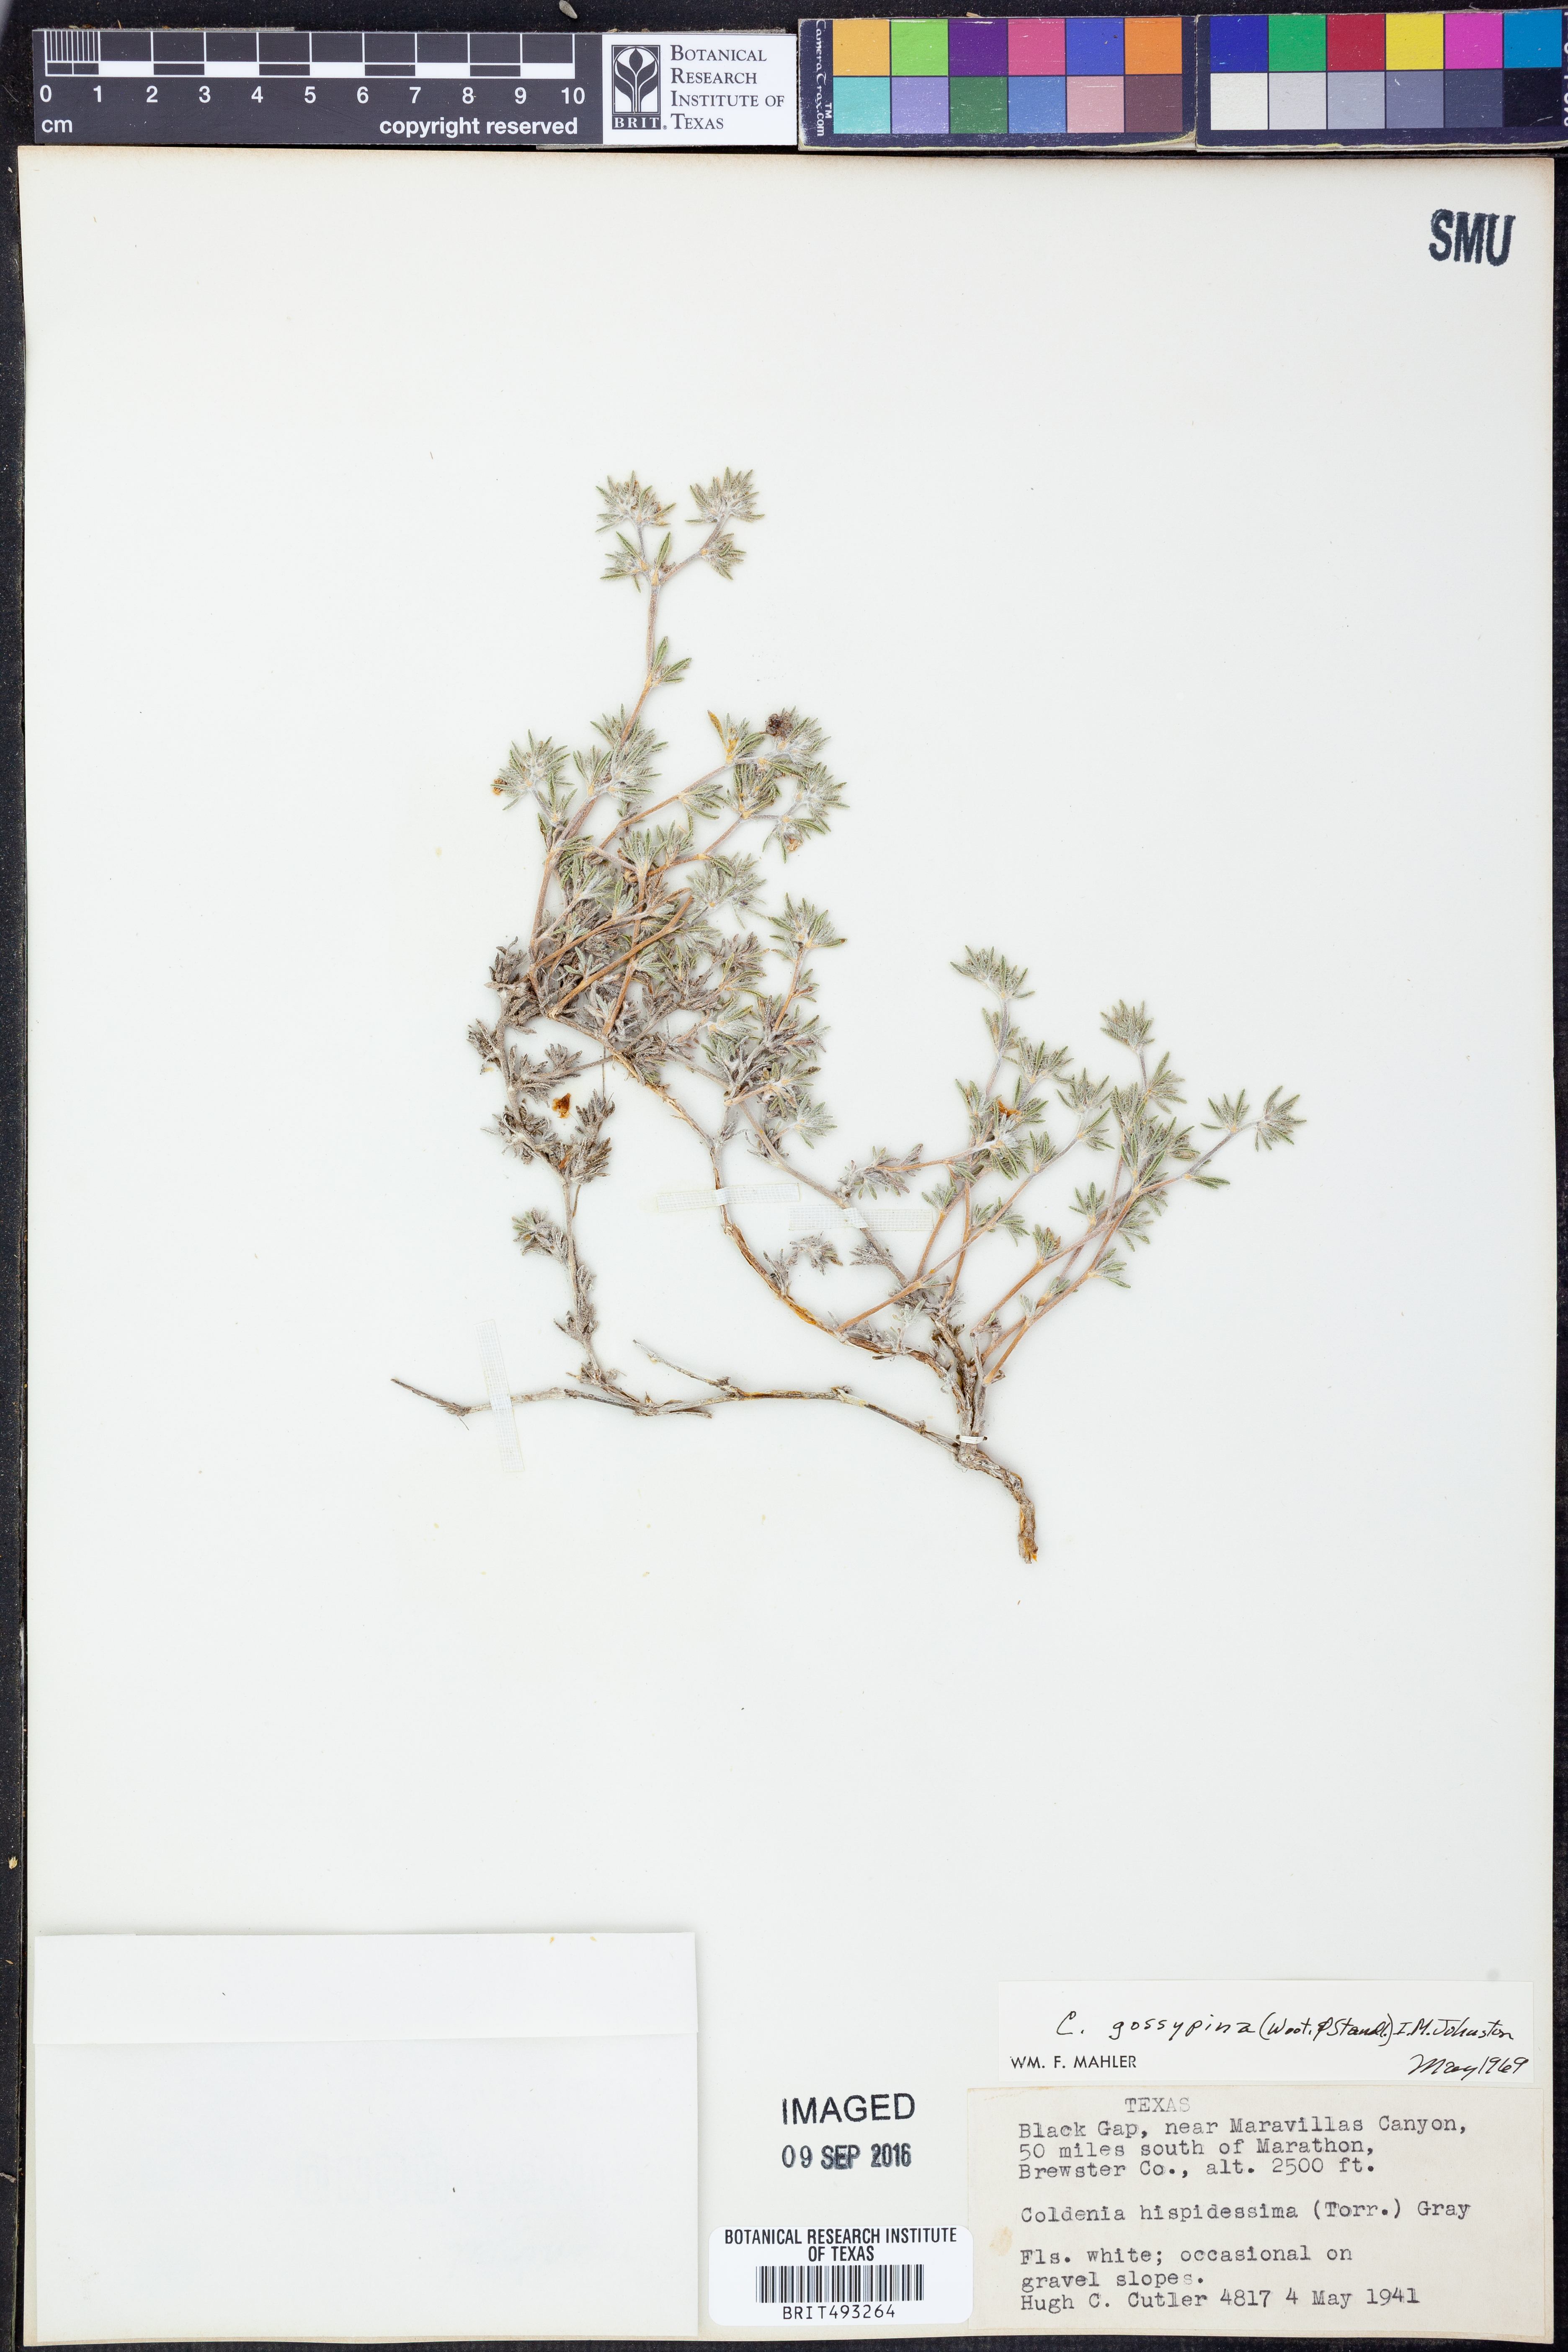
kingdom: Plantae
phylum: Tracheophyta
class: Magnoliopsida
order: Boraginales
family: Ehretiaceae
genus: Tiquilia
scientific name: Tiquilia gossypina
